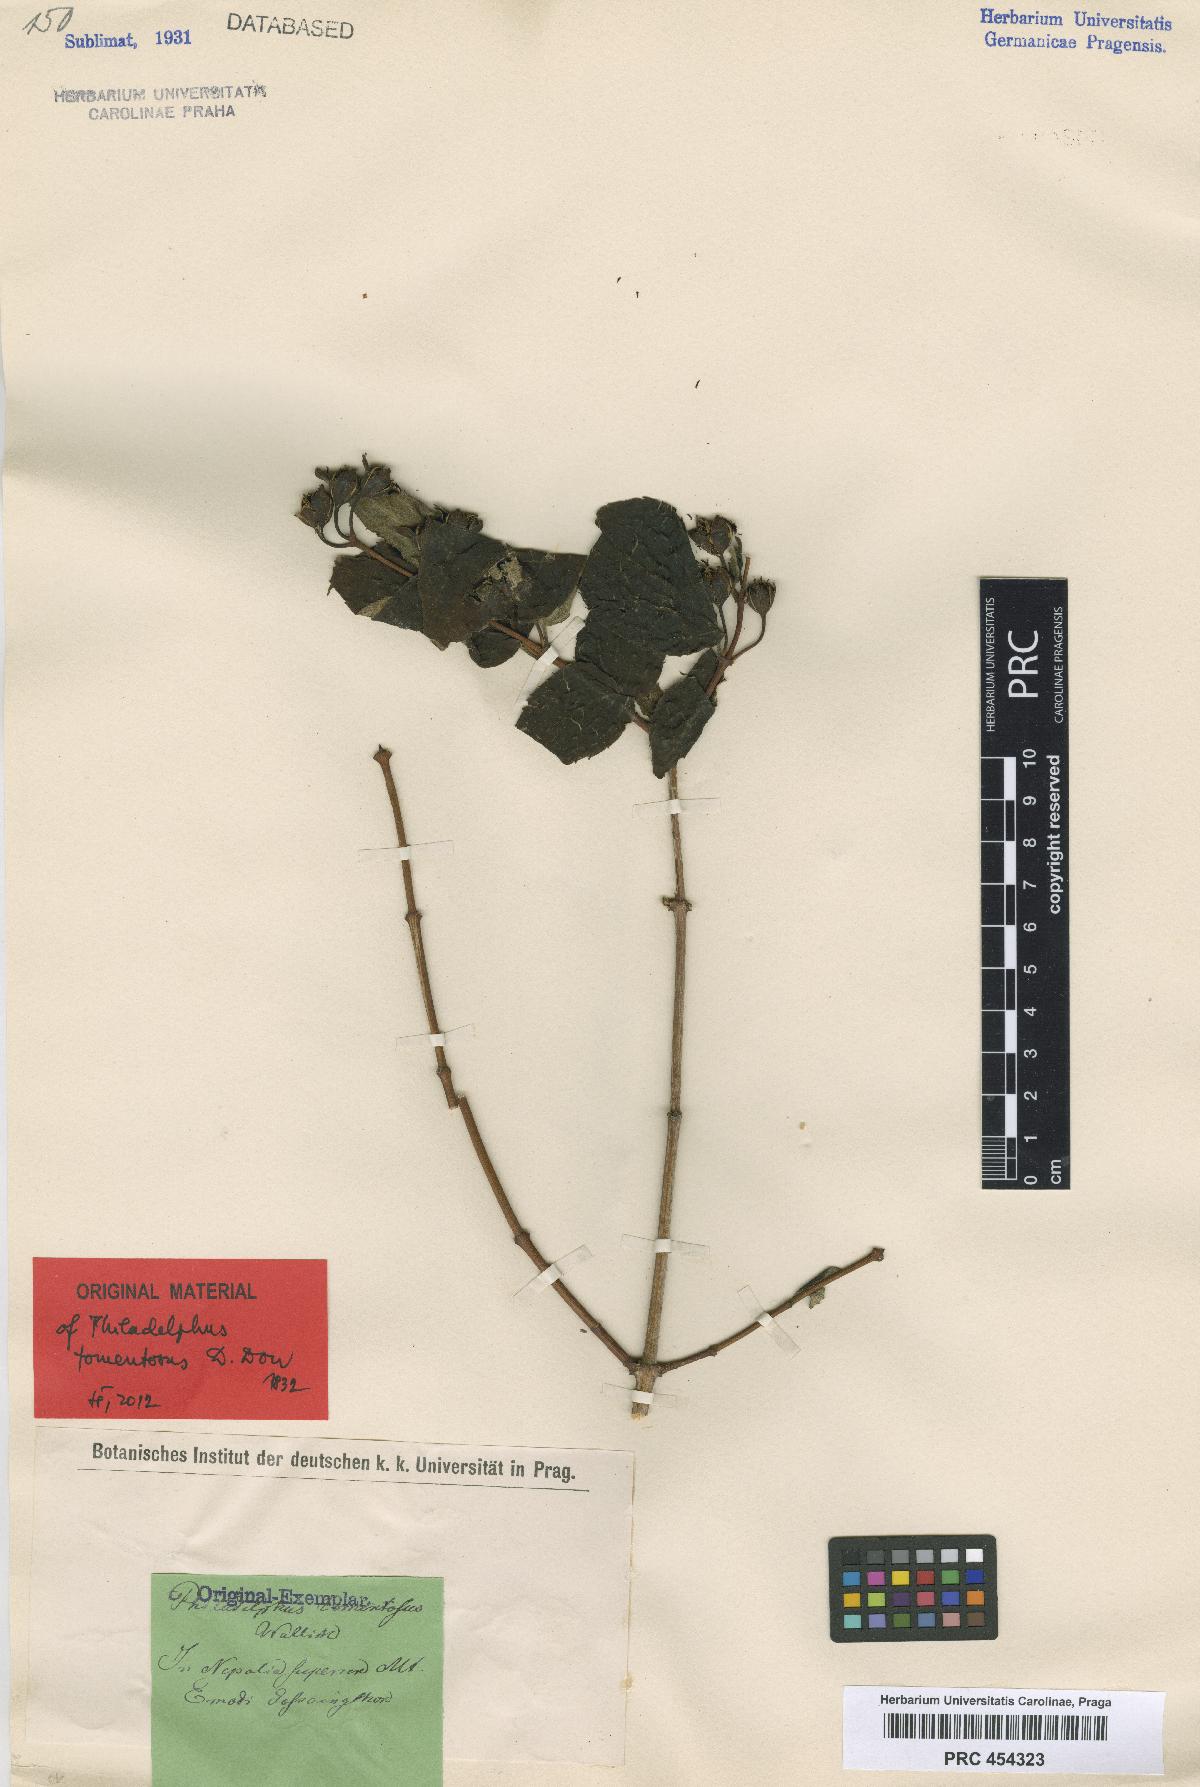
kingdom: Plantae
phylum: Tracheophyta
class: Magnoliopsida
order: Cornales
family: Hydrangeaceae
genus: Philadelphus
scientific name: Philadelphus tomentosus
